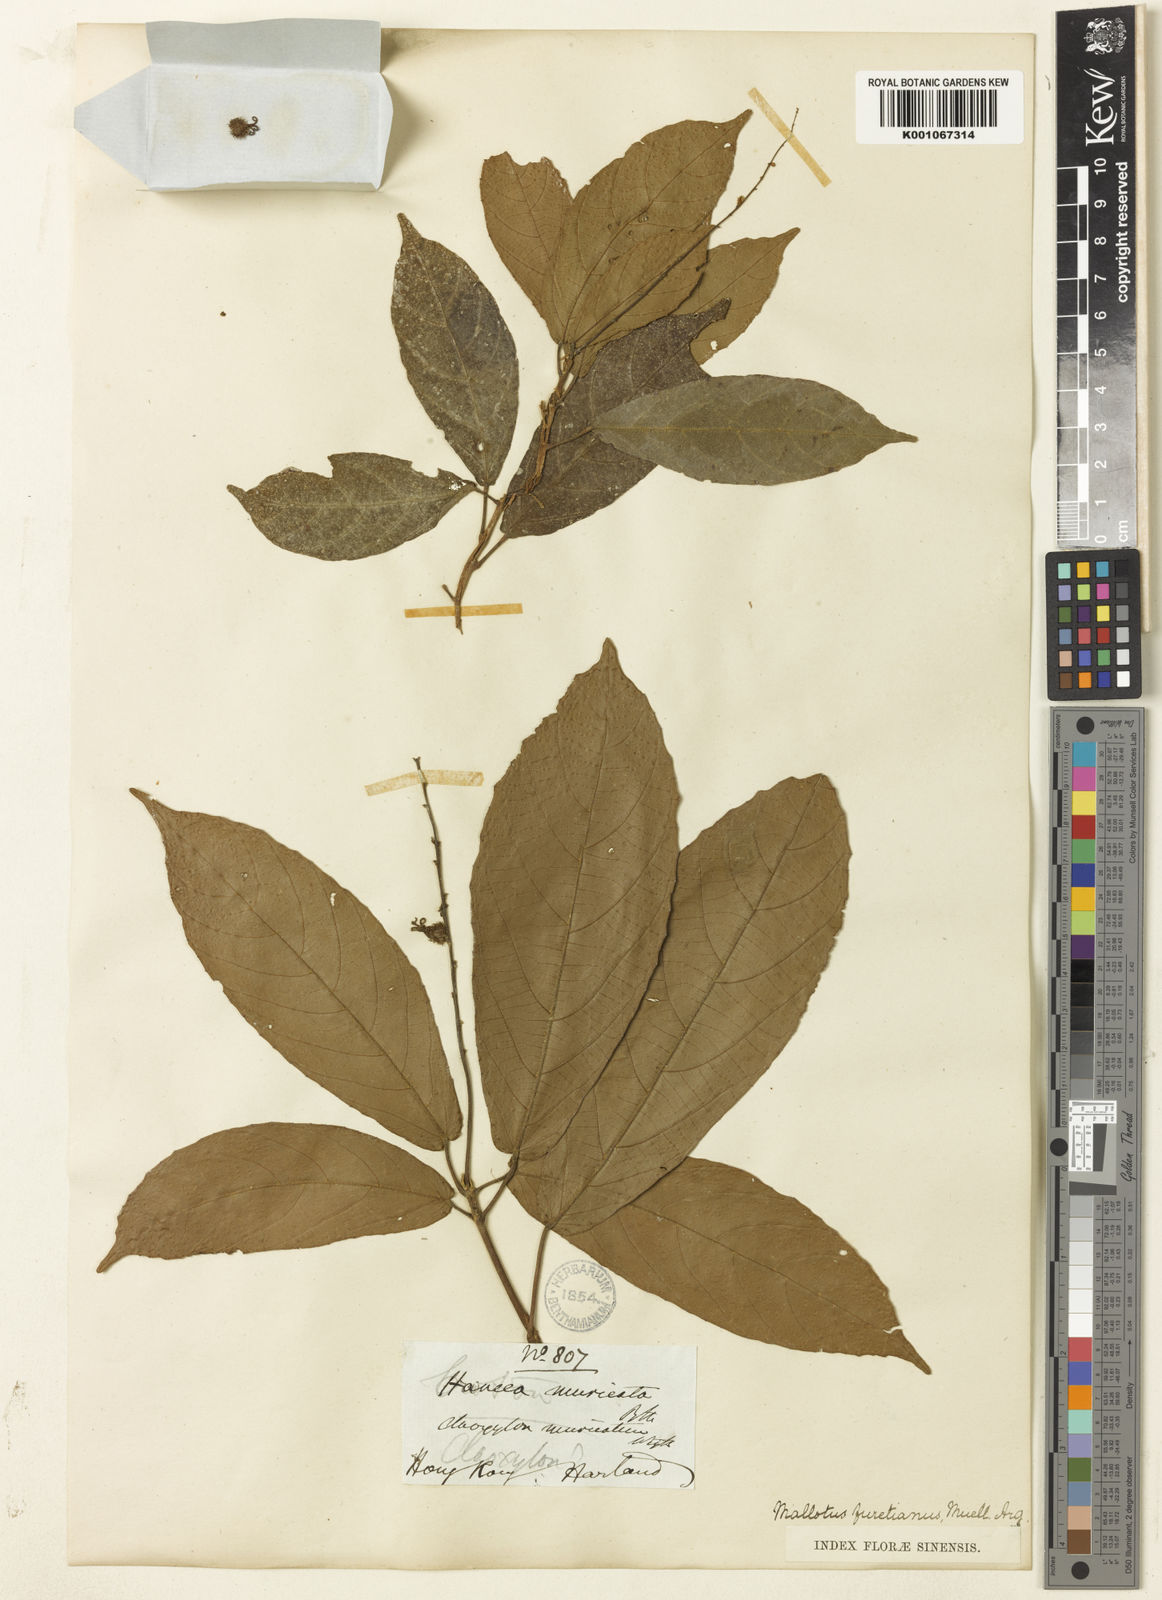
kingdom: Plantae
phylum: Tracheophyta
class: Magnoliopsida
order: Malpighiales
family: Euphorbiaceae
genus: Mallotus
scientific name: Mallotus peltatus
